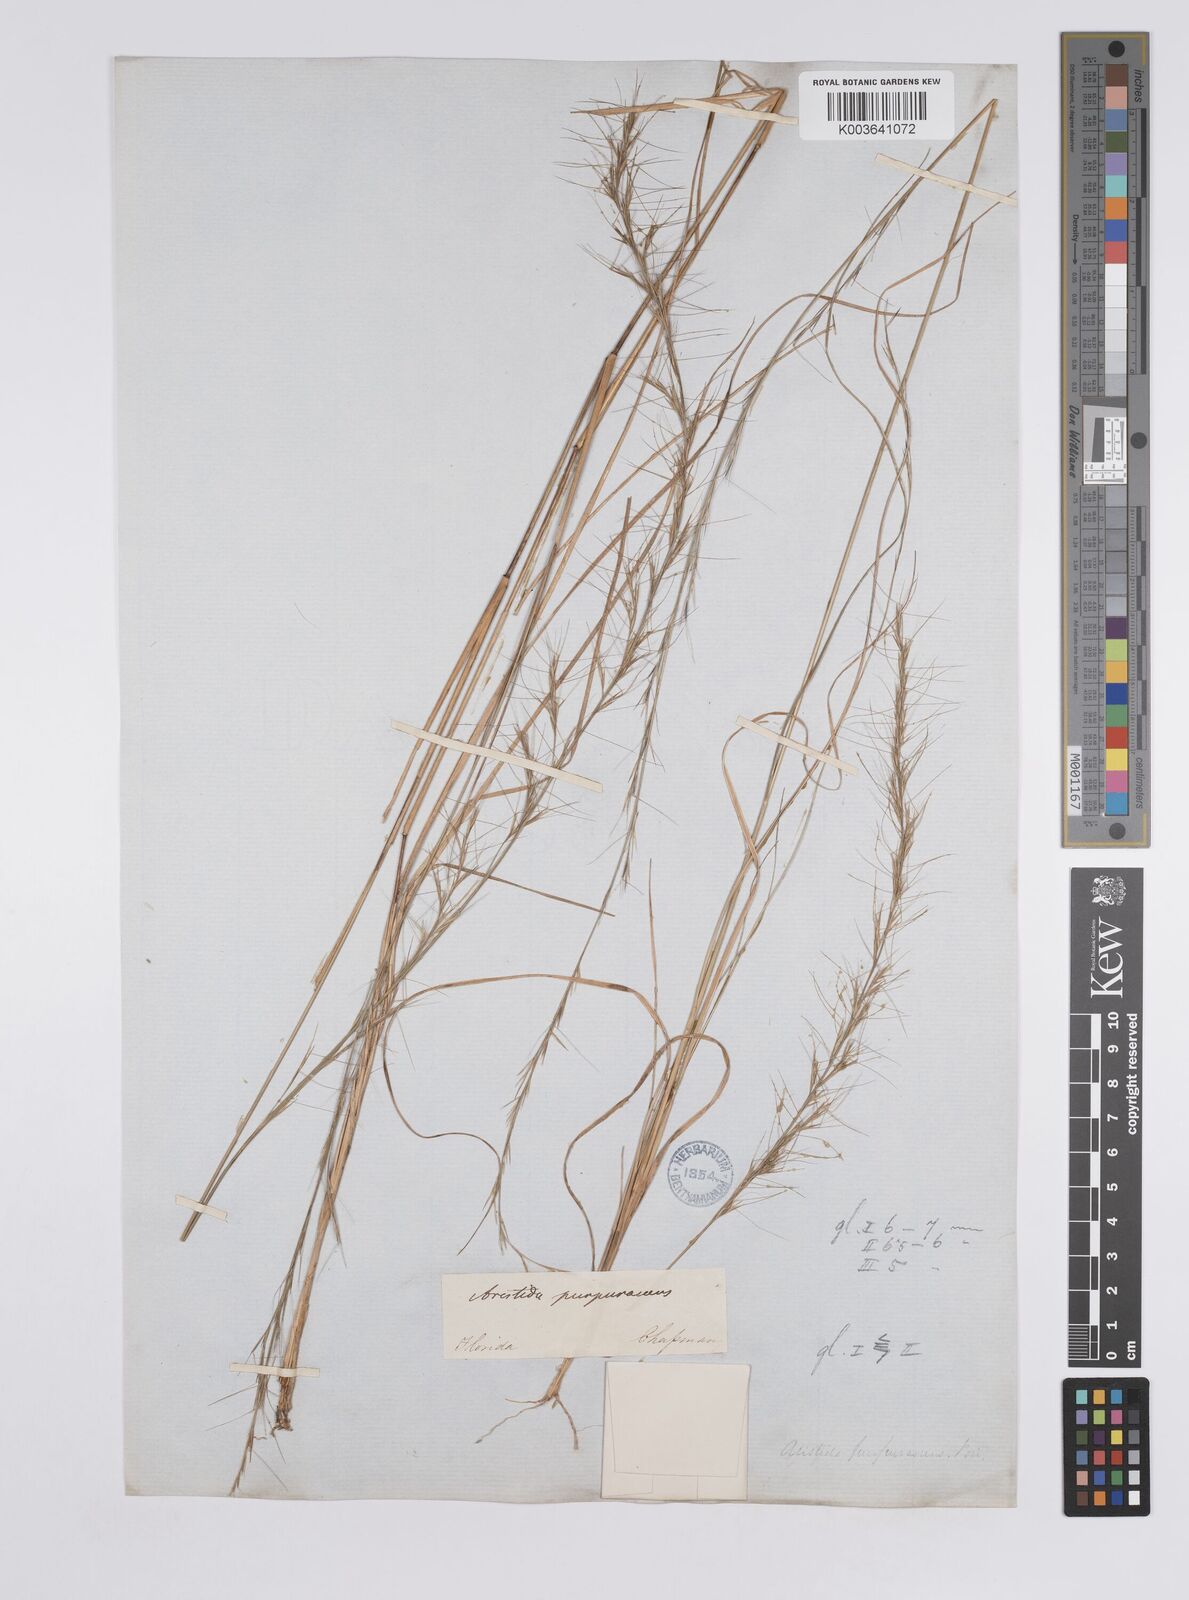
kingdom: Plantae
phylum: Tracheophyta
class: Liliopsida
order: Poales
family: Poaceae
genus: Aristida
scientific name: Aristida purpurascens
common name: Arrow-feather
